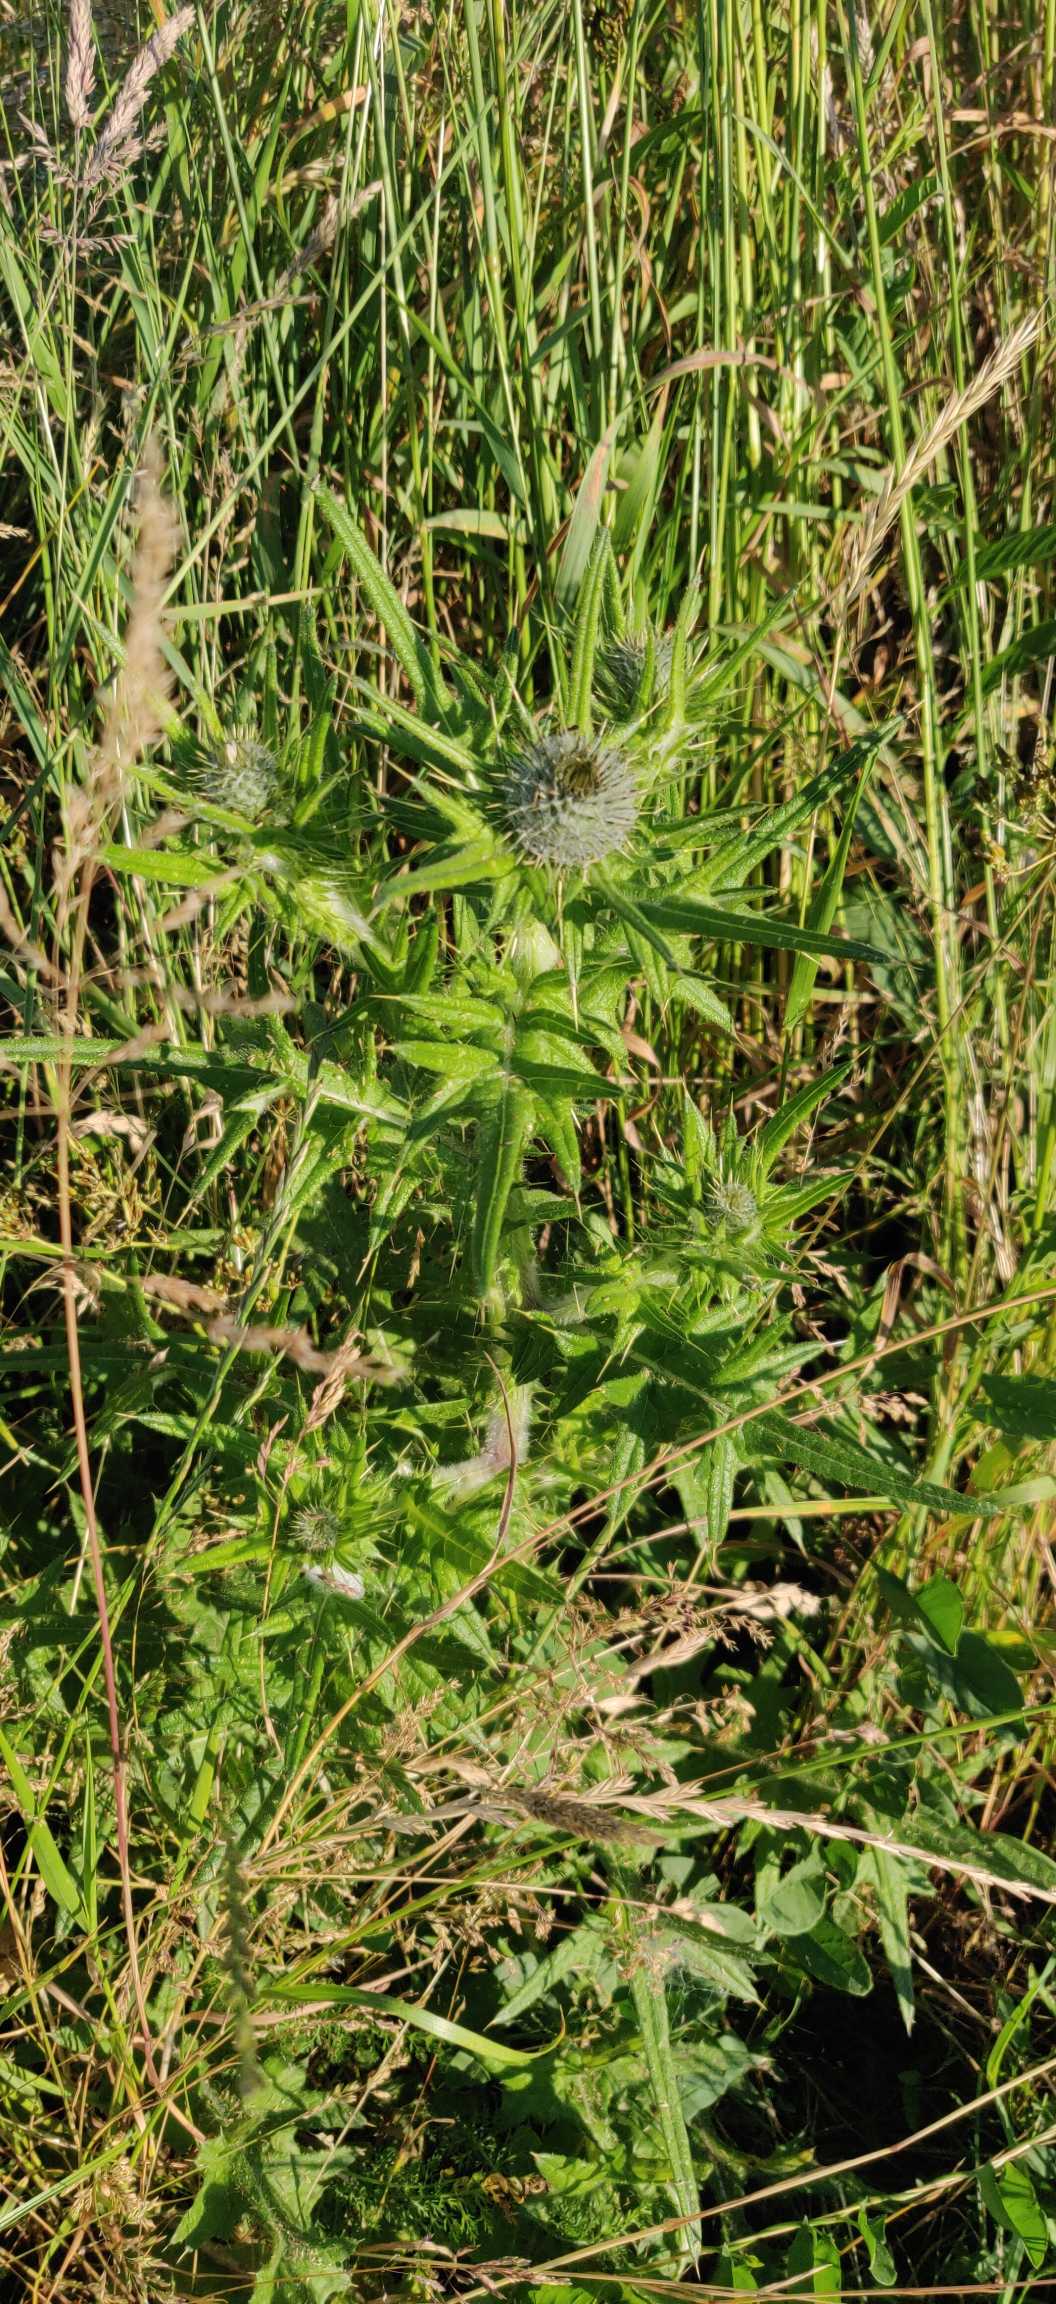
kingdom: Plantae
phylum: Tracheophyta
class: Magnoliopsida
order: Asterales
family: Asteraceae
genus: Cirsium
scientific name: Cirsium vulgare
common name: Horse-tidsel
